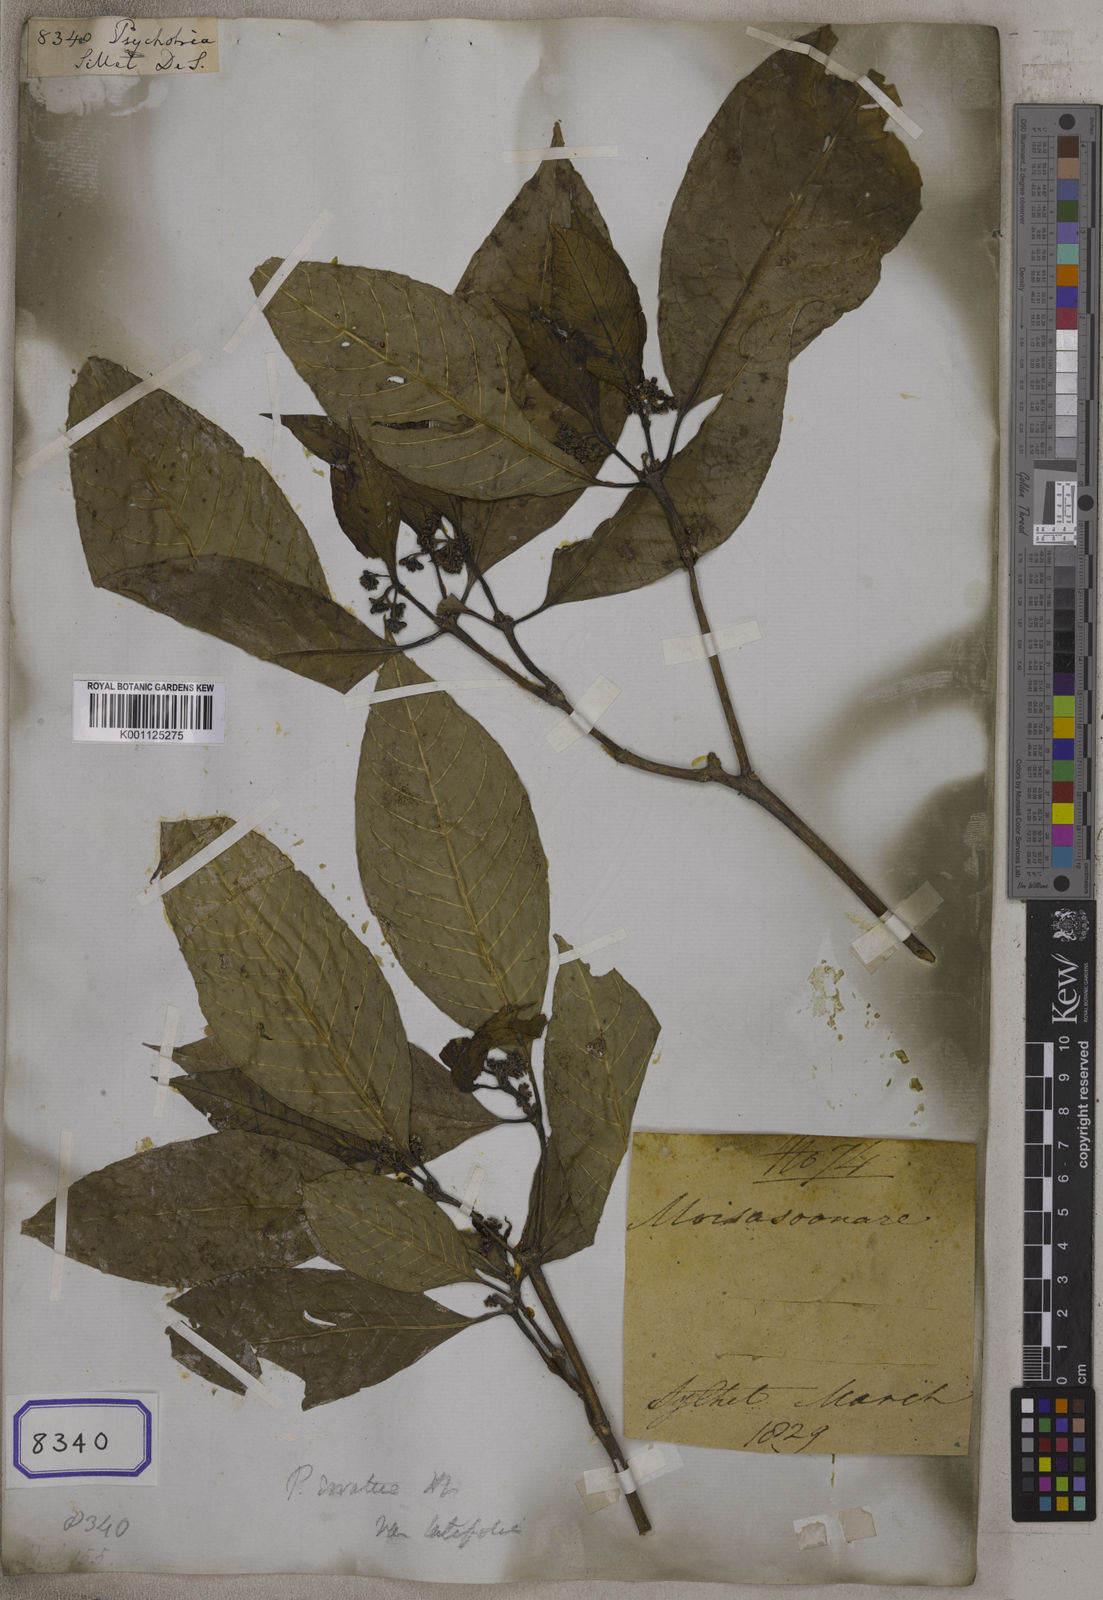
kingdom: Plantae
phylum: Tracheophyta
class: Magnoliopsida
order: Gentianales
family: Rubiaceae
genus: Psychotria
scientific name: Psychotria
